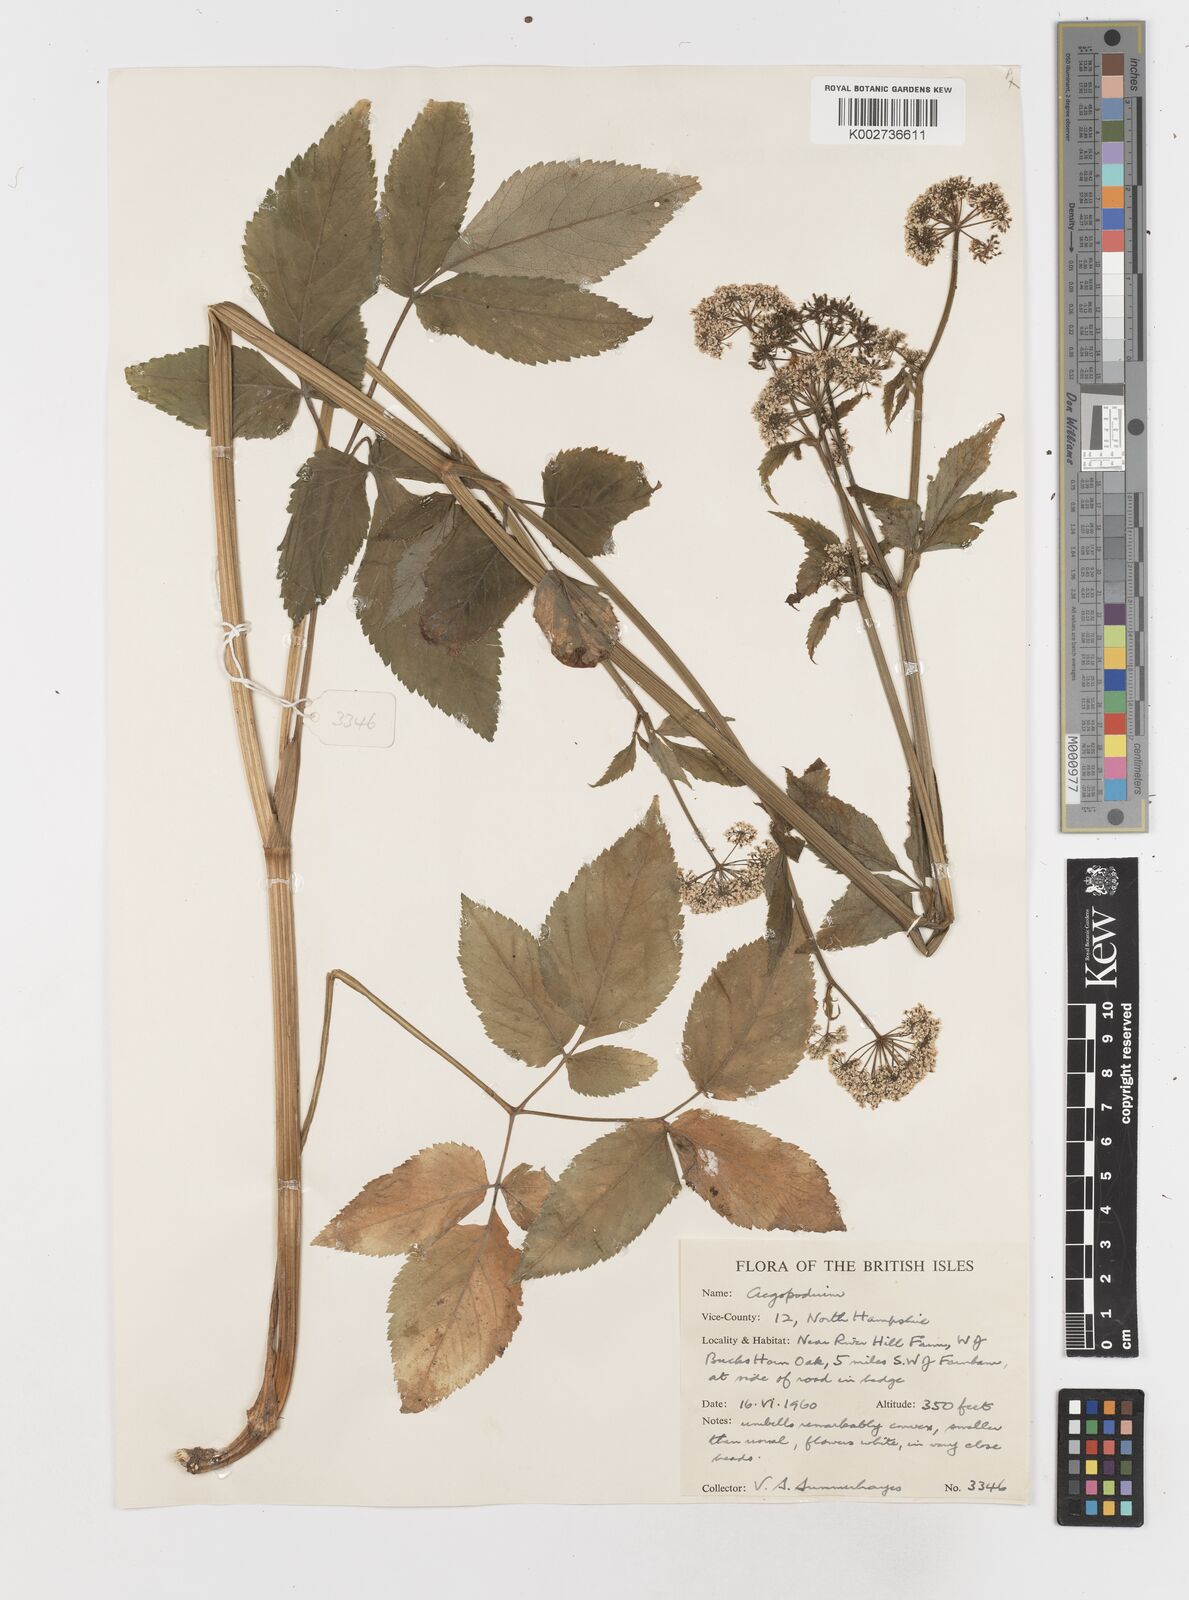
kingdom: Plantae
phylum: Tracheophyta
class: Magnoliopsida
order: Apiales
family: Apiaceae
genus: Aegopodium
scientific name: Aegopodium
